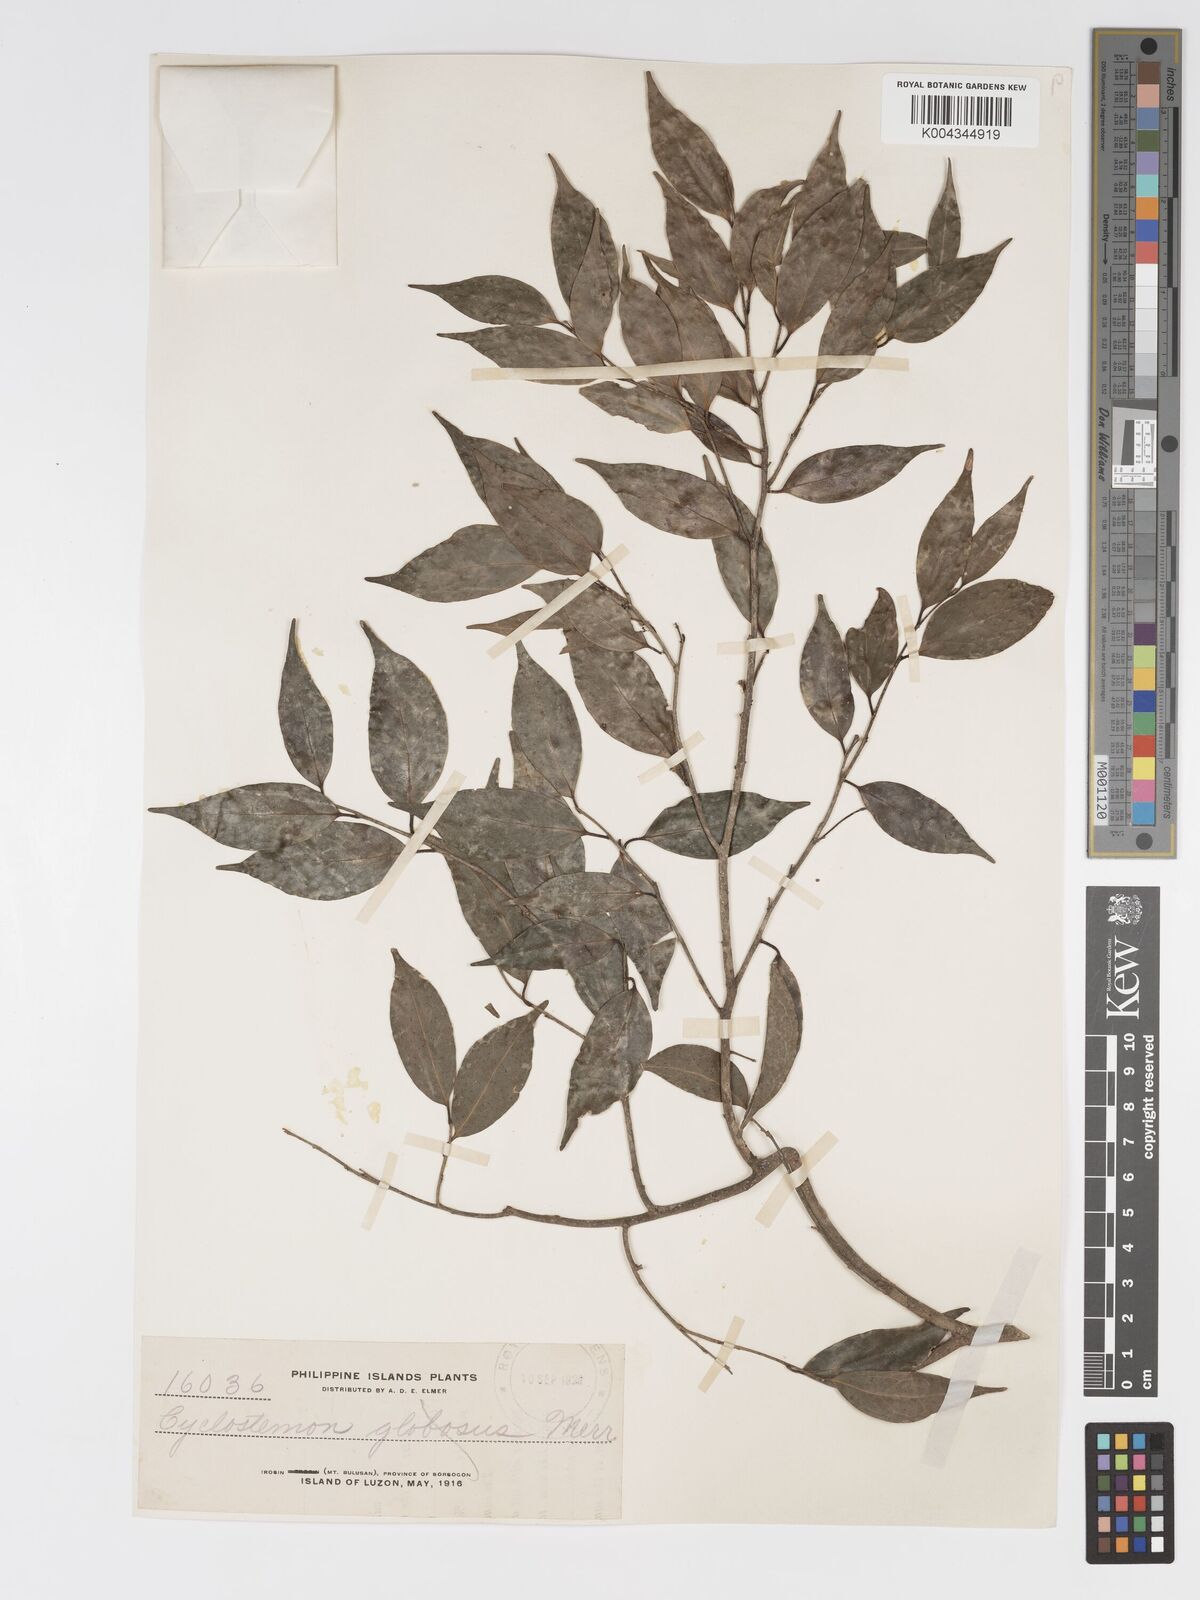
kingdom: Plantae
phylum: Tracheophyta
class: Magnoliopsida
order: Malpighiales
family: Putranjivaceae
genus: Drypetes
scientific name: Drypetes microphylla
